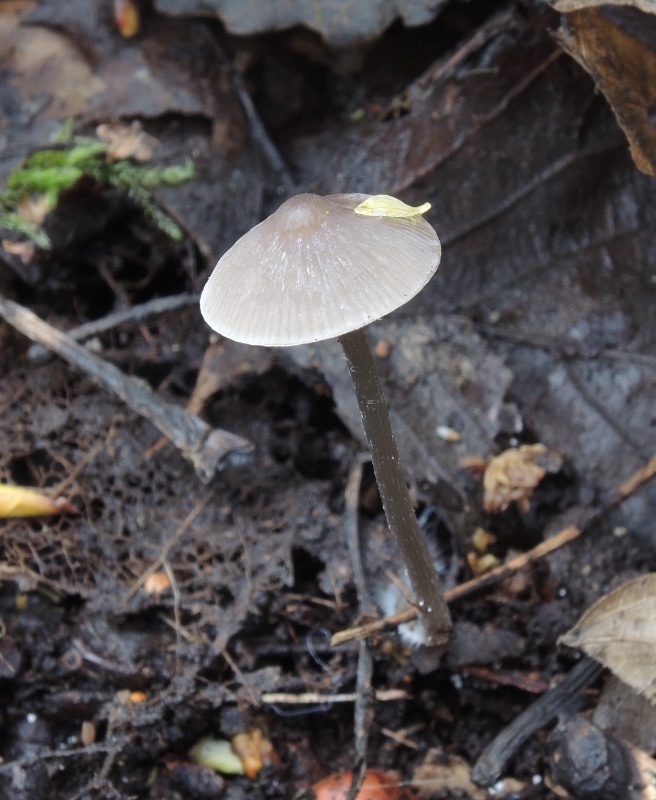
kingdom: Fungi
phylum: Basidiomycota
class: Agaricomycetes
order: Agaricales
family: Mycenaceae
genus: Mycena
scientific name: Mycena polygramma
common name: mangestribet huesvamp
